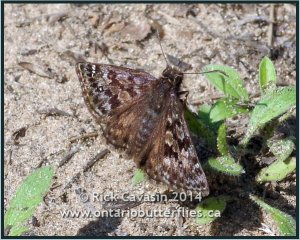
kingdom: Animalia
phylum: Arthropoda
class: Insecta
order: Lepidoptera
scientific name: Lepidoptera
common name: Butterflies
